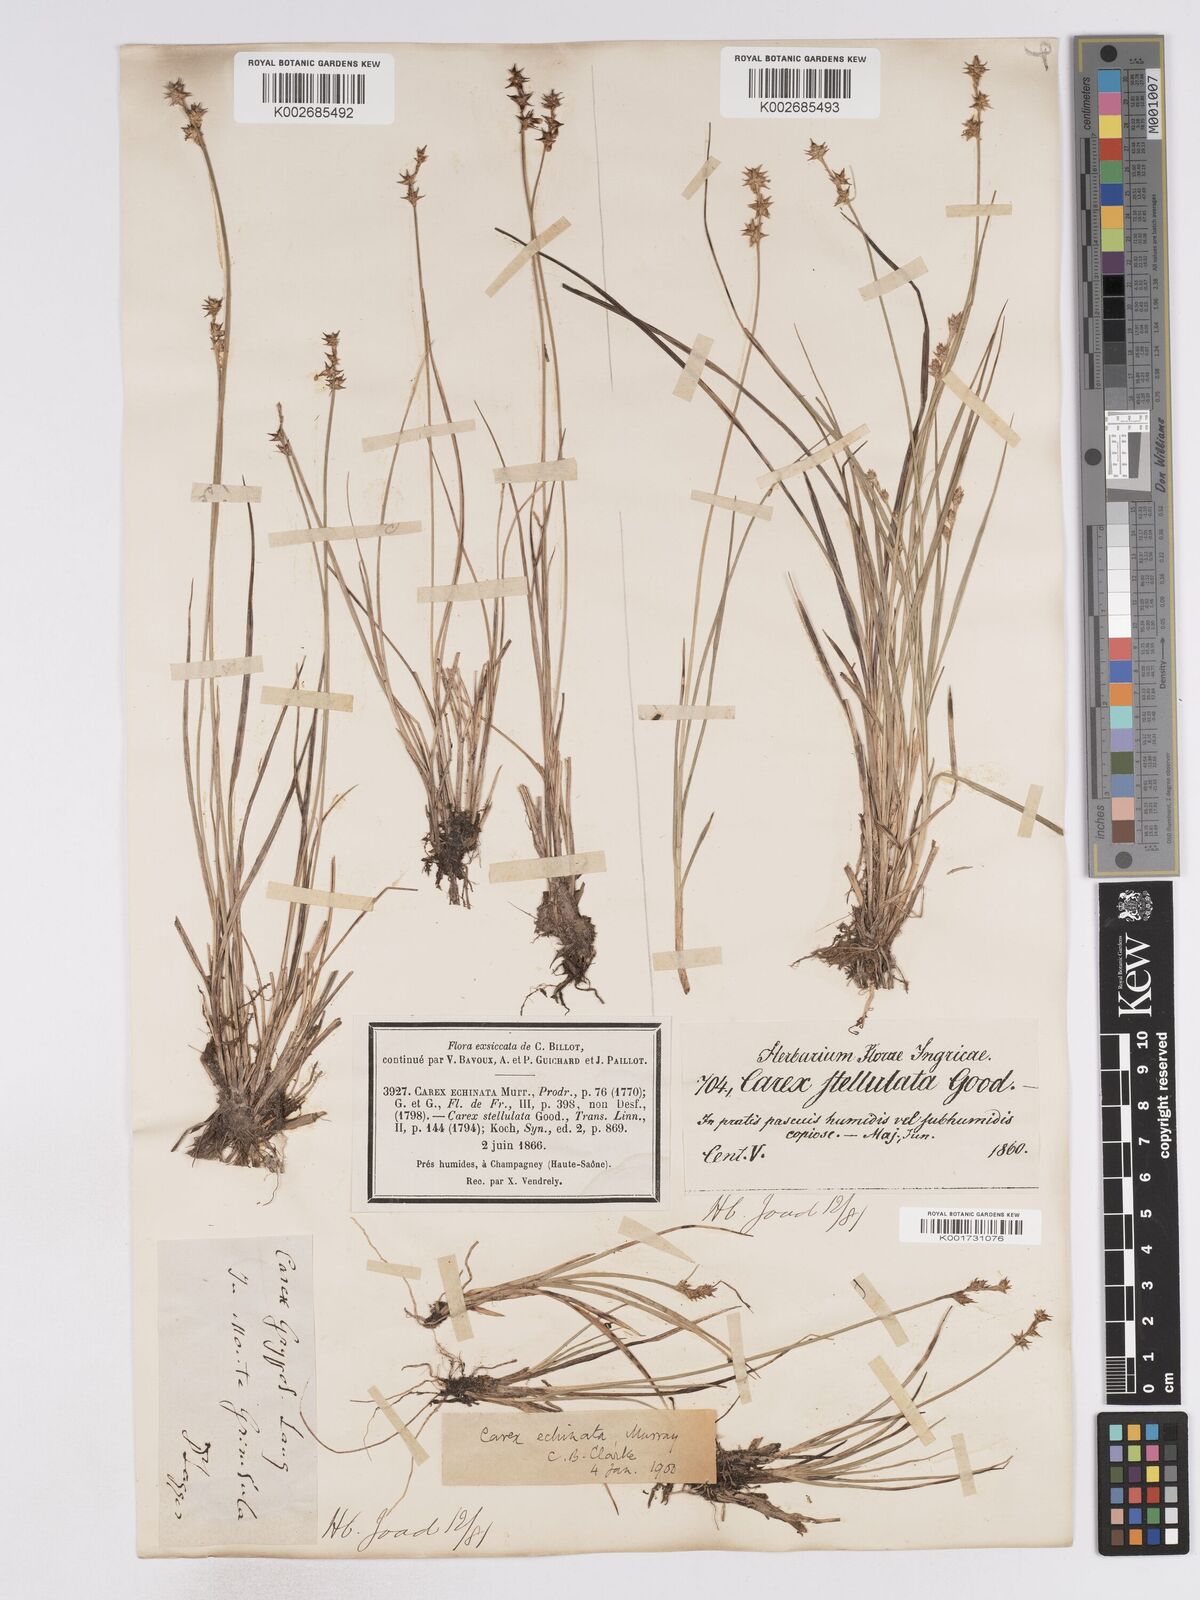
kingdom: Plantae
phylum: Tracheophyta
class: Liliopsida
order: Poales
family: Cyperaceae
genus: Carex
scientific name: Carex echinata
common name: Star sedge
